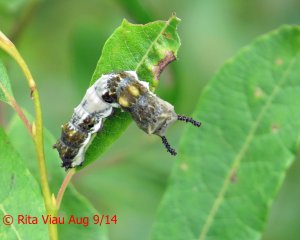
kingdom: Animalia
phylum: Arthropoda
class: Insecta
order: Lepidoptera
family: Nymphalidae
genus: Limenitis
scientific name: Limenitis archippus
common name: Viceroy
